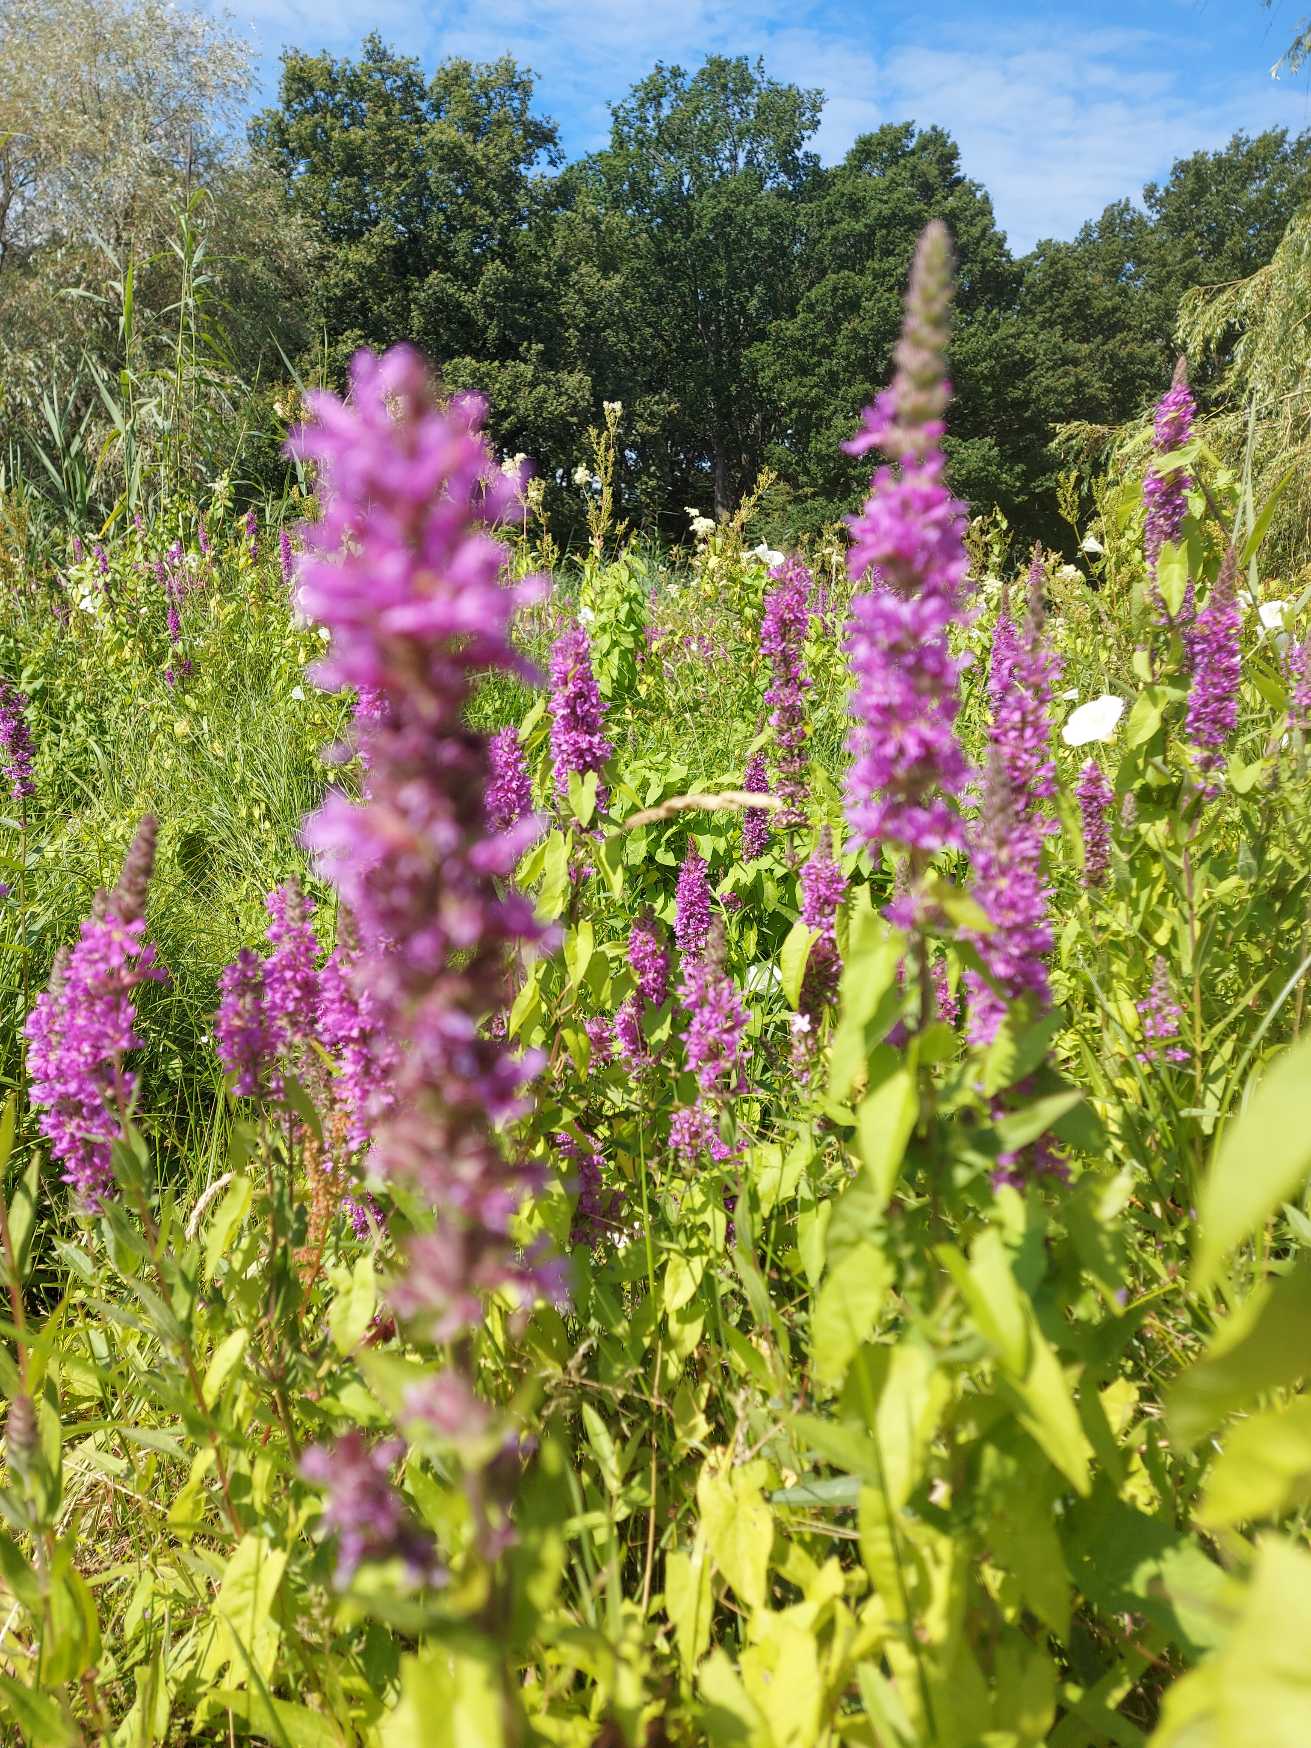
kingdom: Plantae
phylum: Tracheophyta
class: Magnoliopsida
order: Myrtales
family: Lythraceae
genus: Lythrum
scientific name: Lythrum salicaria
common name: Kattehale
